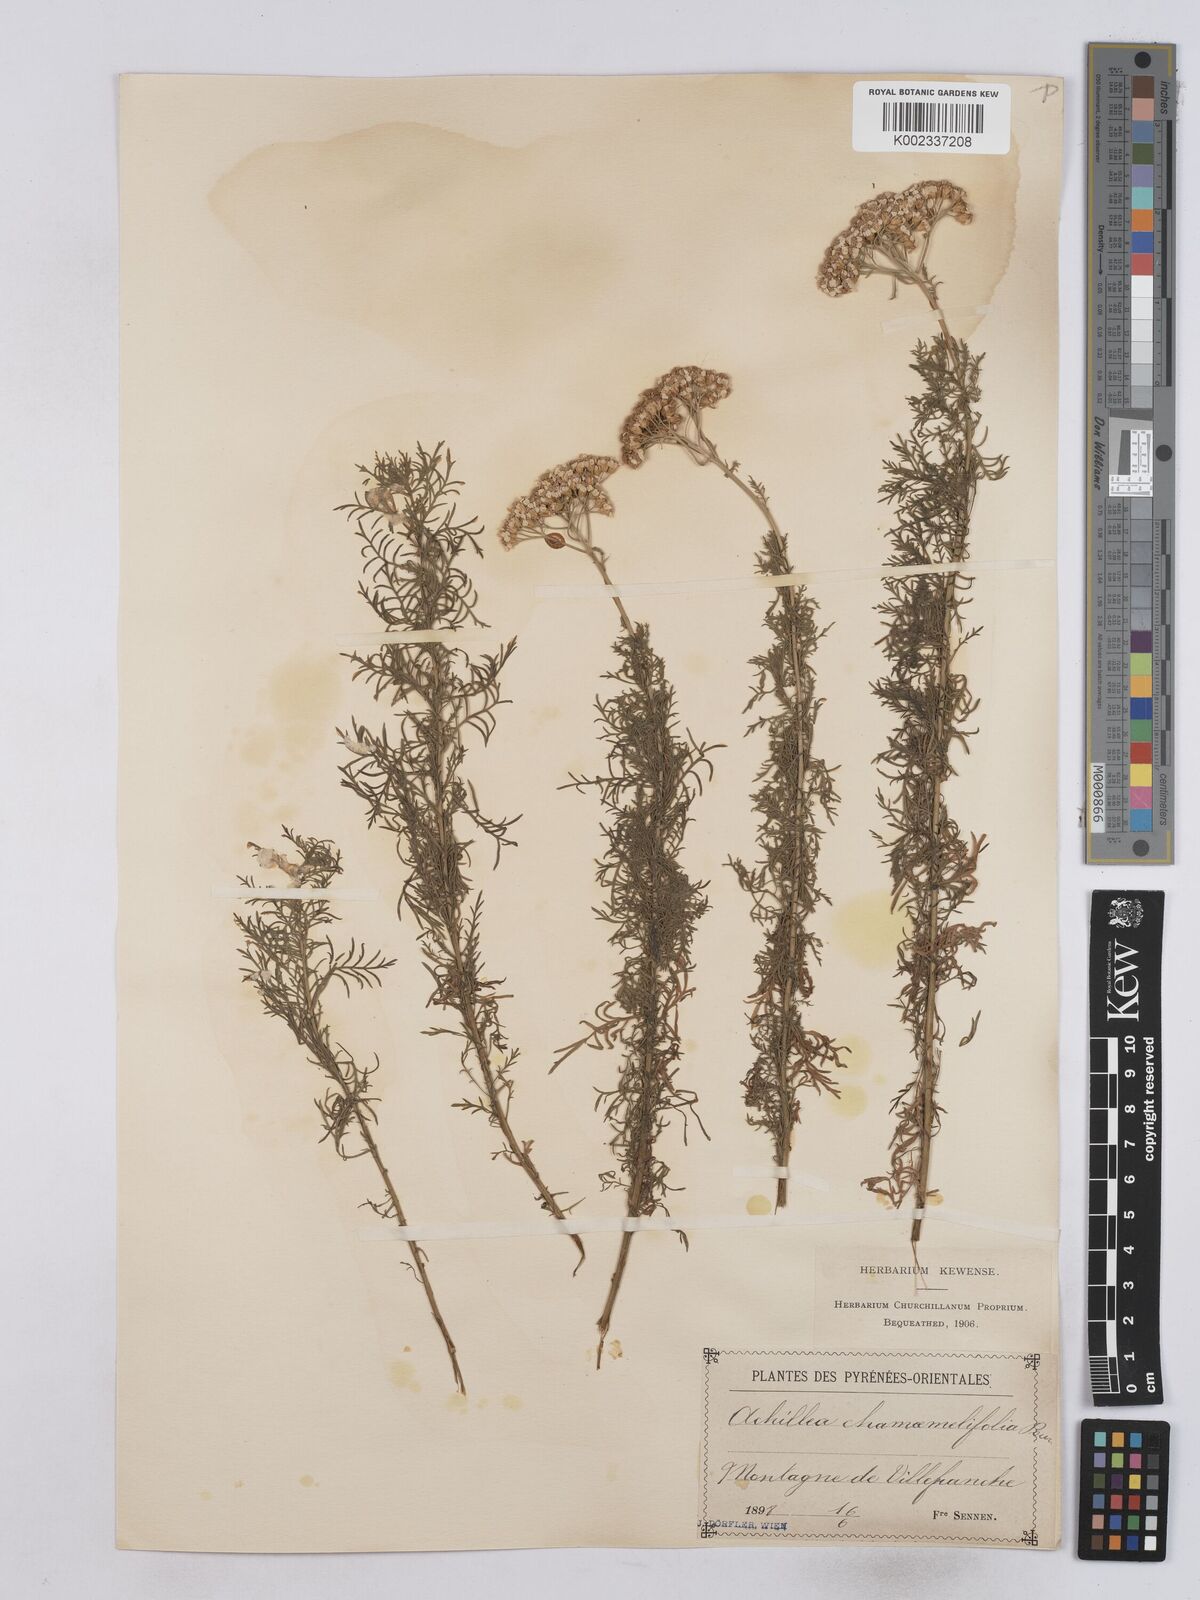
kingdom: Plantae
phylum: Tracheophyta
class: Magnoliopsida
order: Asterales
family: Asteraceae
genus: Achillea
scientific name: Achillea chamaemelifolia
